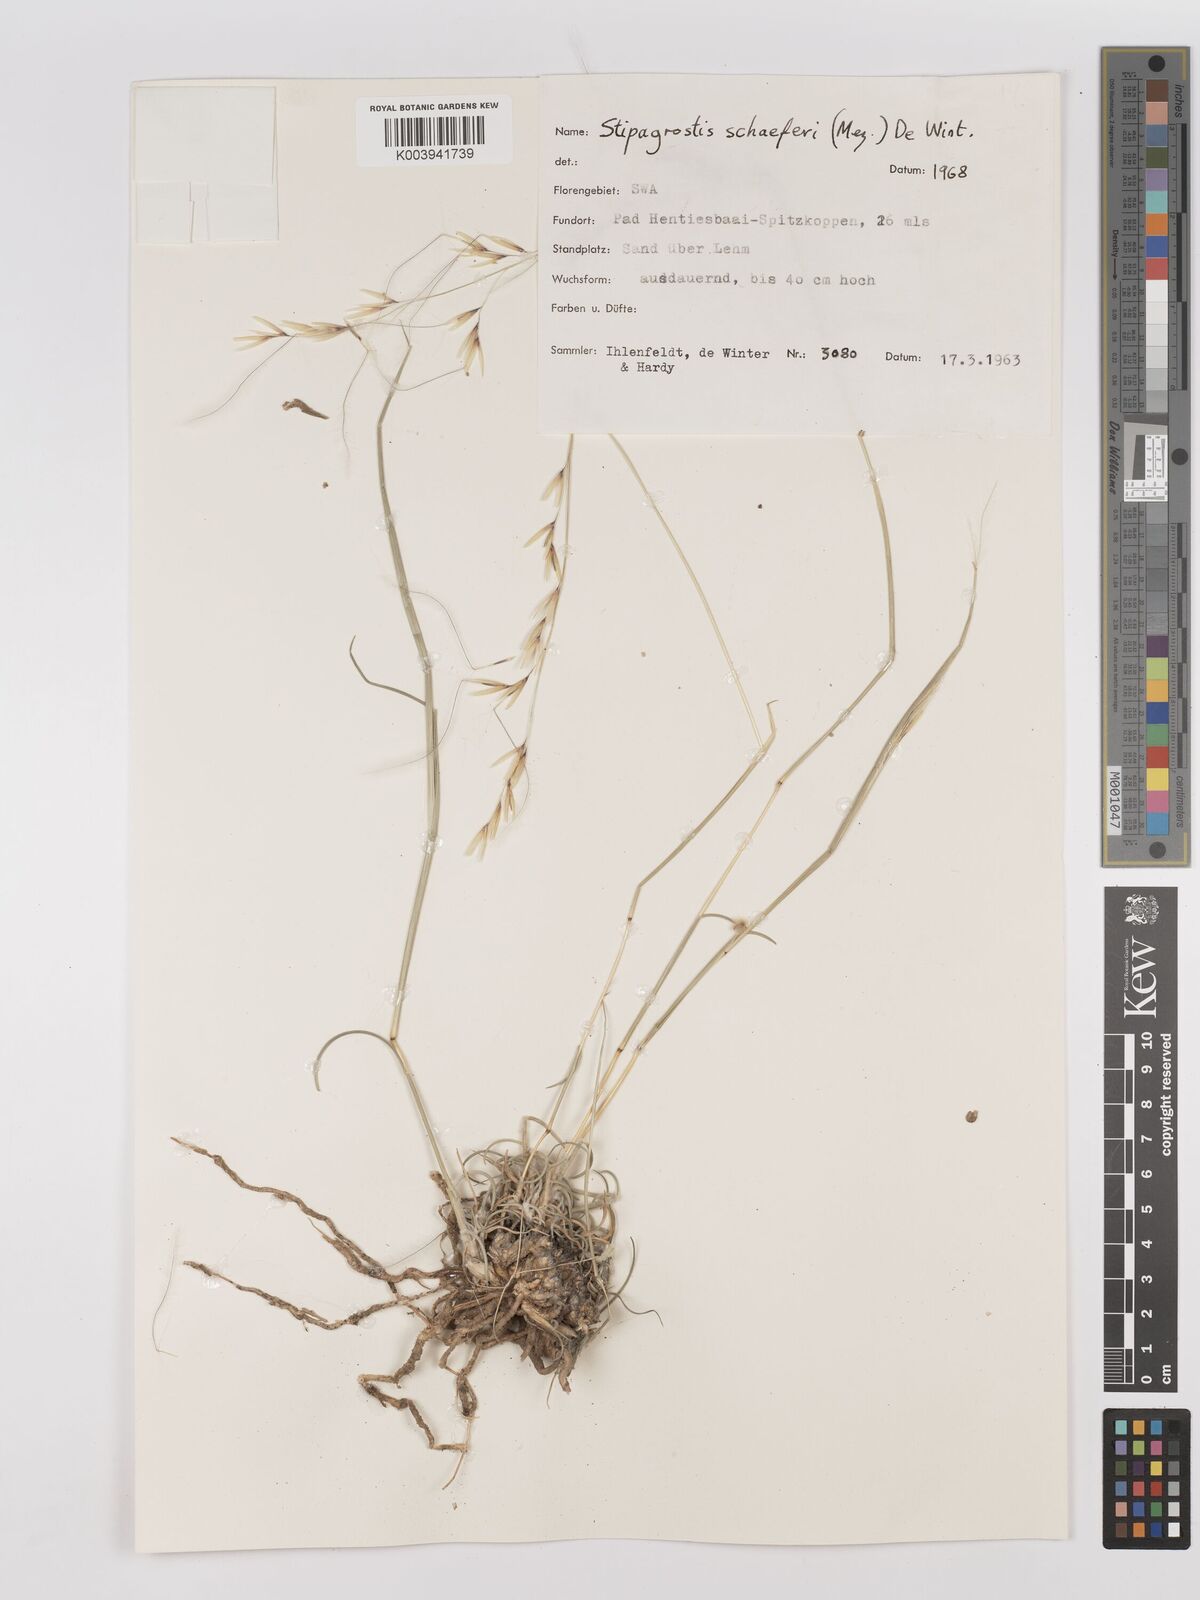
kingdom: Plantae
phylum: Tracheophyta
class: Liliopsida
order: Poales
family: Poaceae
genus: Stipagrostis
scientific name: Stipagrostis schaeferi
